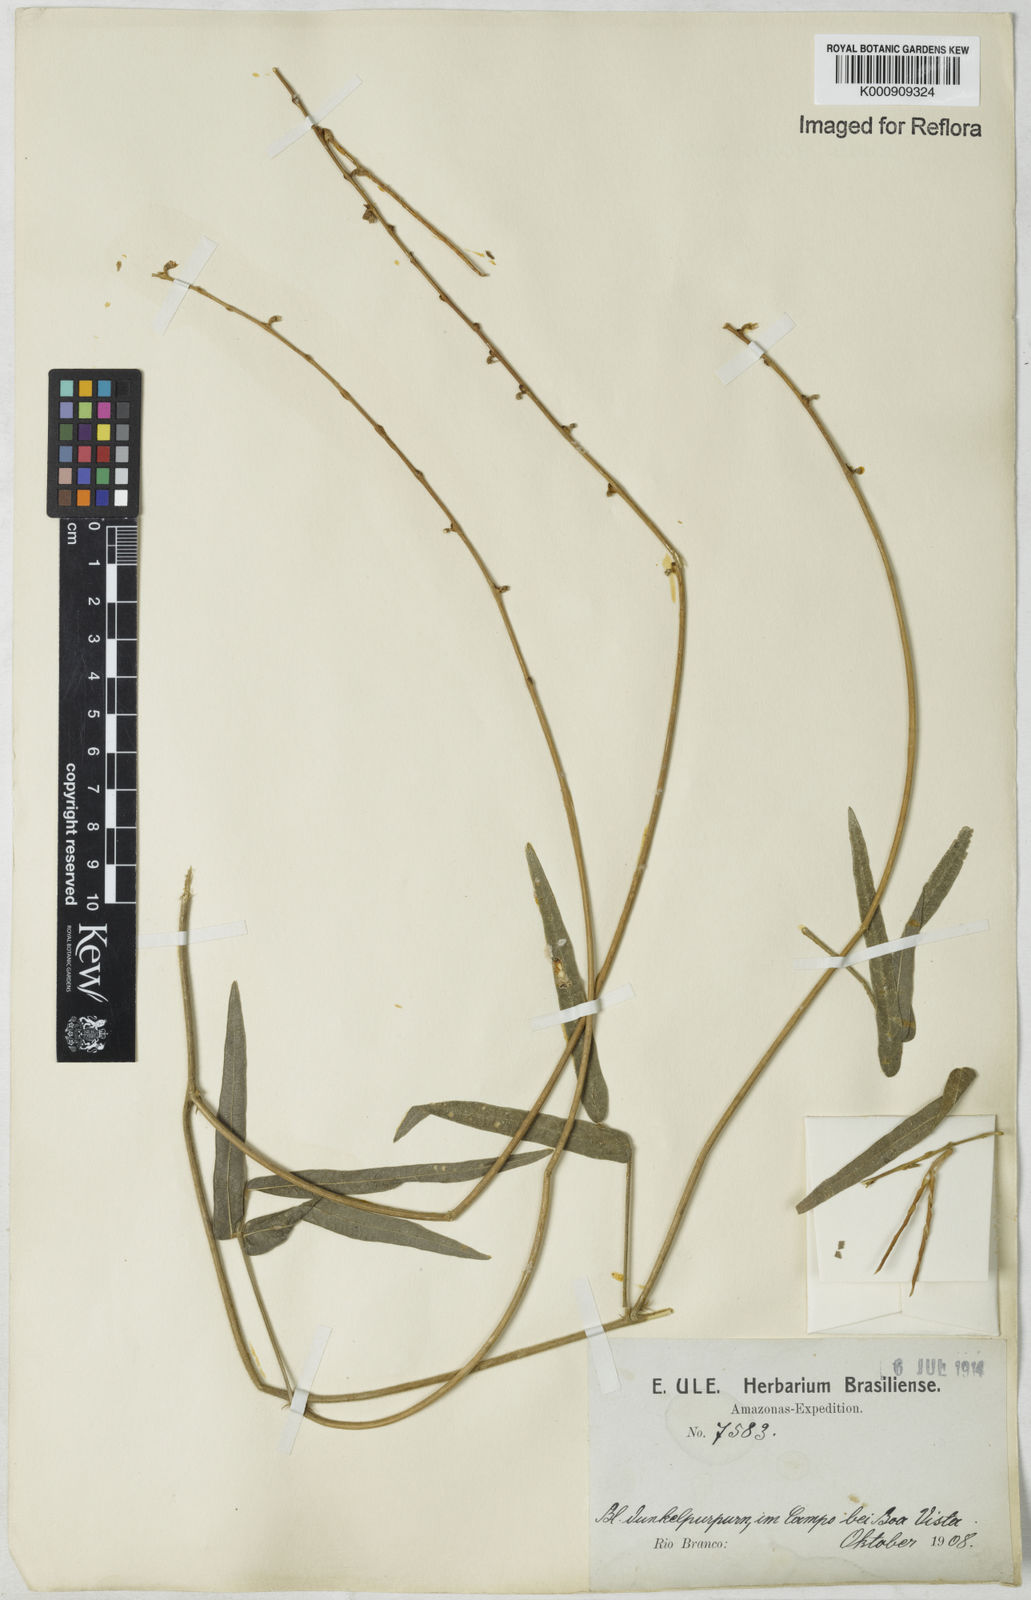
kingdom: Plantae
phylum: Tracheophyta
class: Magnoliopsida
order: Fabales
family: Fabaceae
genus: Macroptilium
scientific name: Macroptilium gracile
